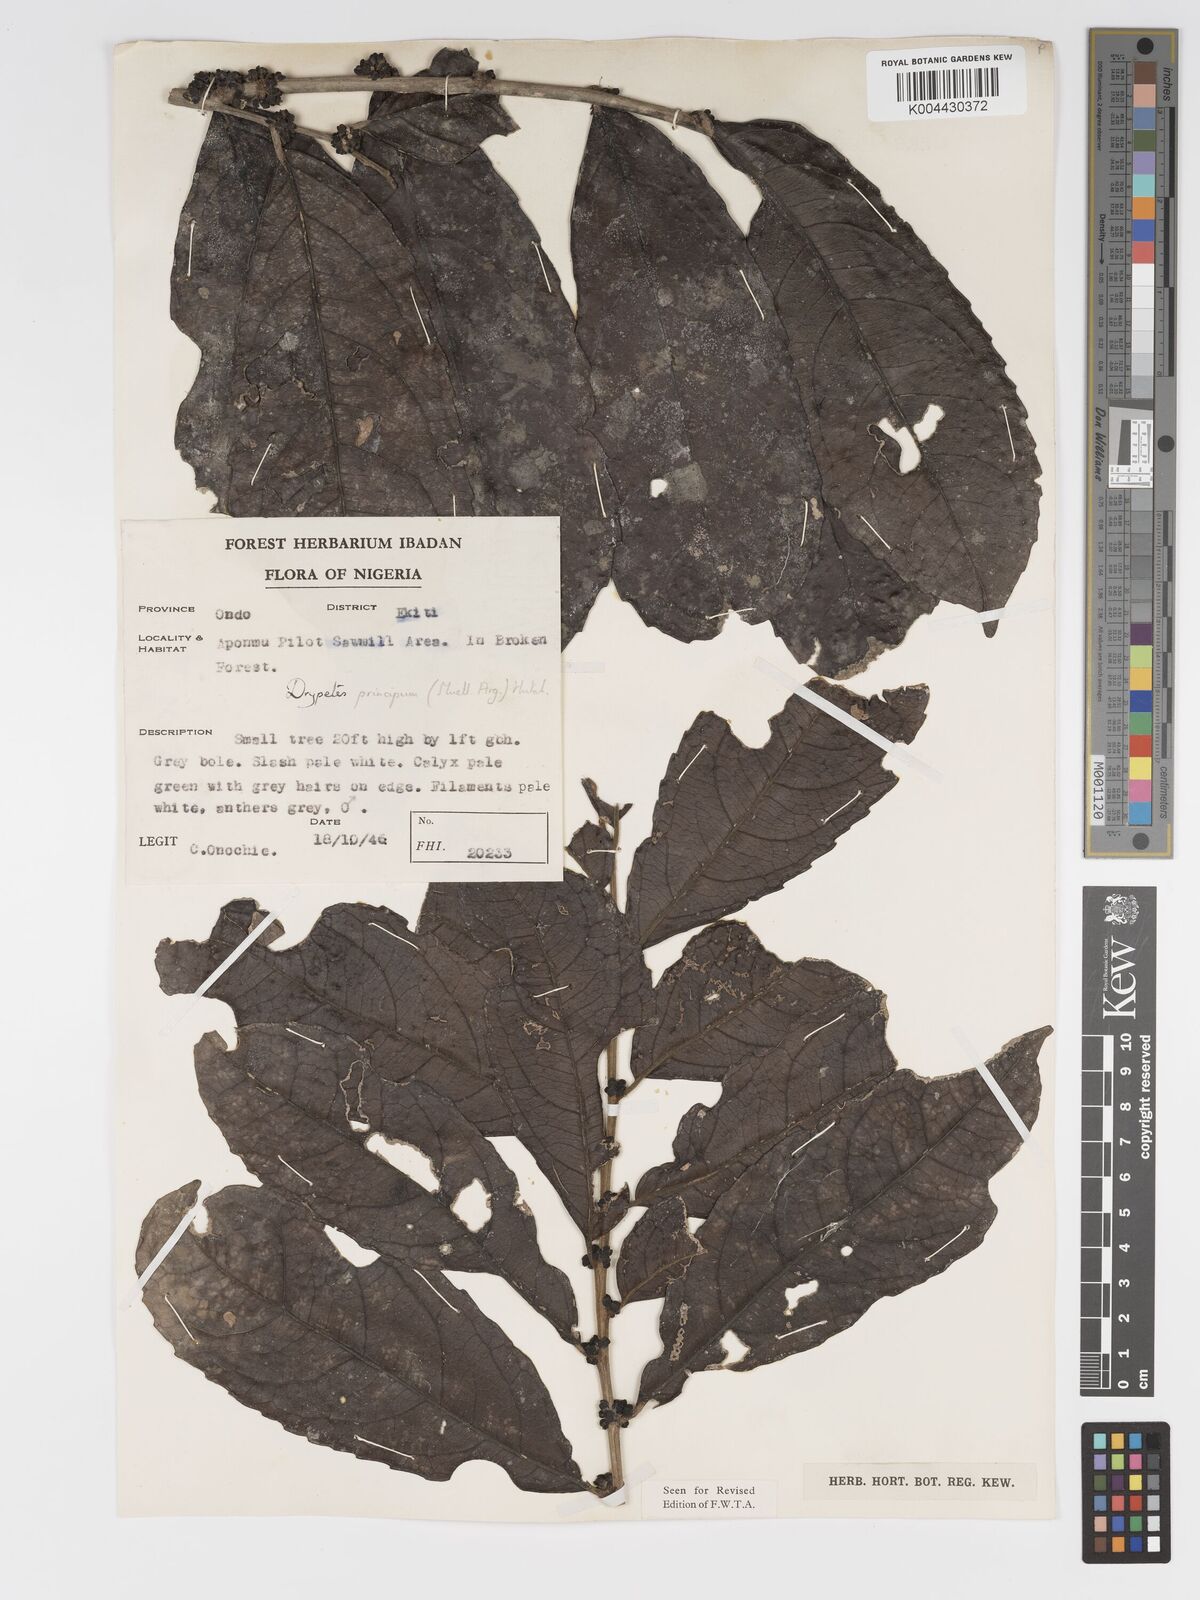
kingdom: Plantae
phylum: Tracheophyta
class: Magnoliopsida
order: Malpighiales
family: Putranjivaceae
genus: Drypetes
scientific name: Drypetes principum
